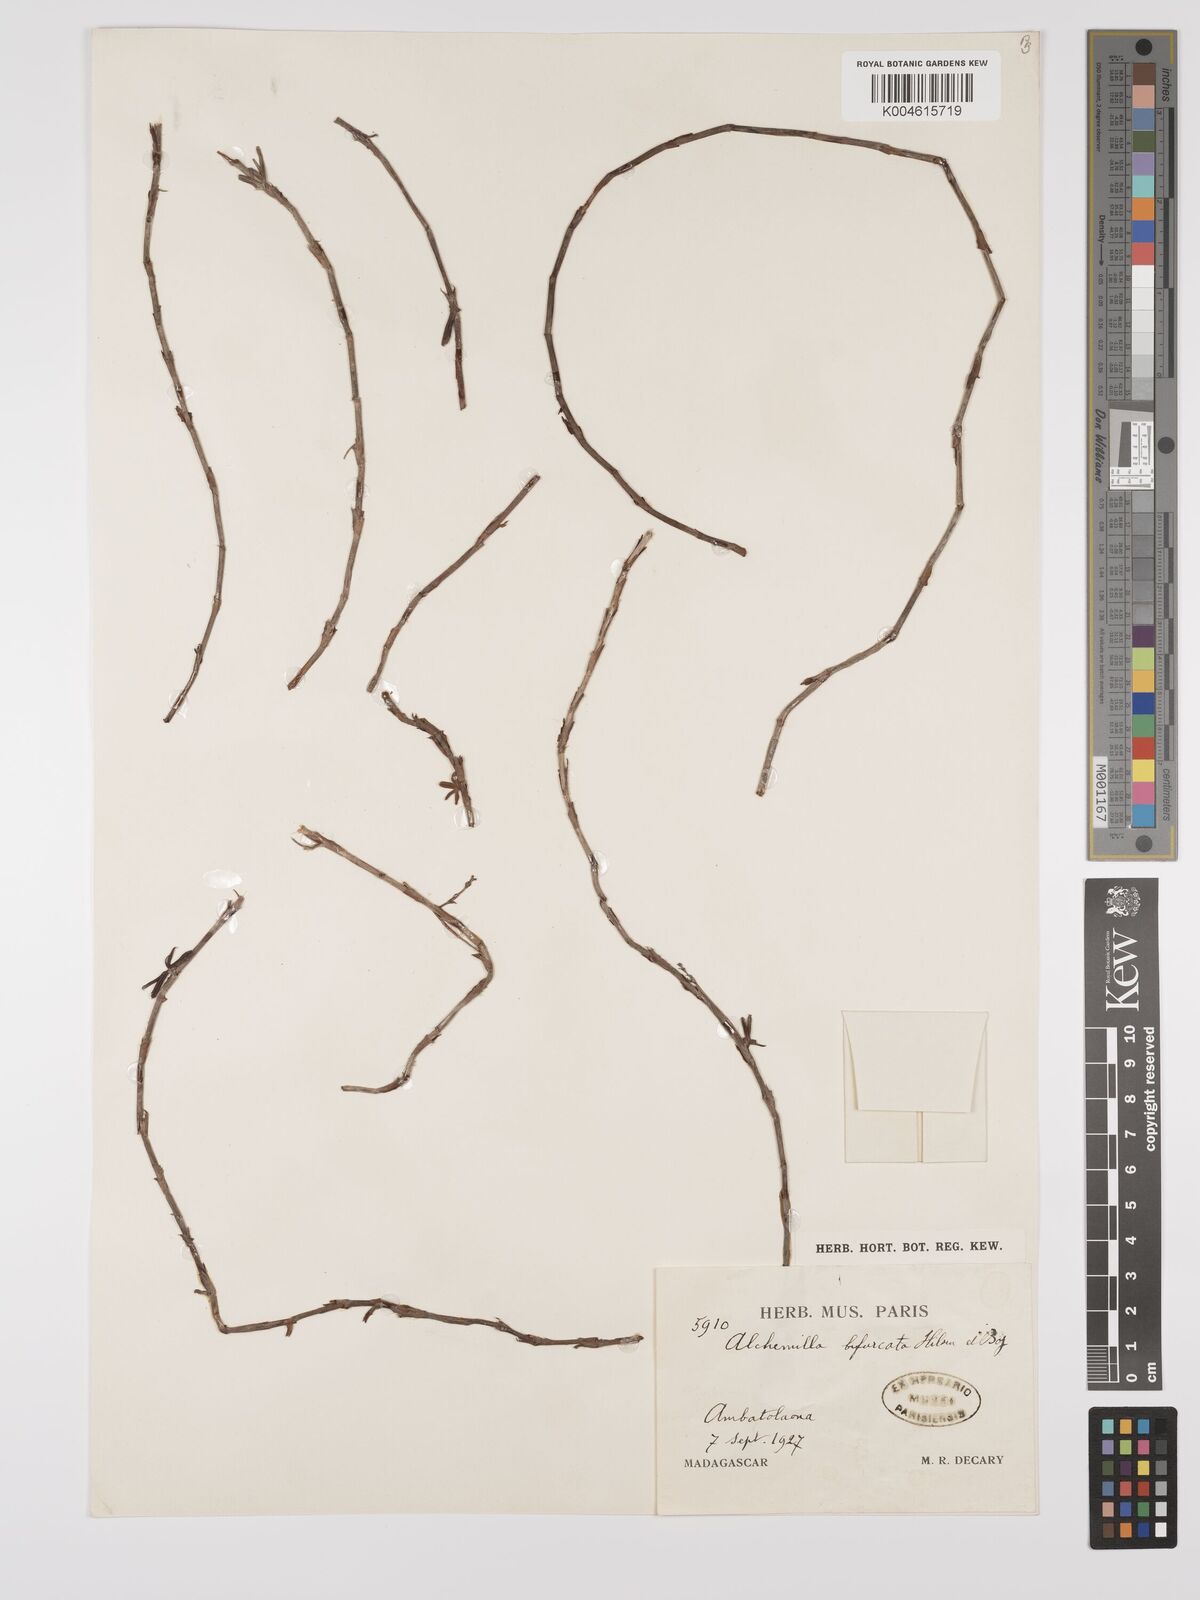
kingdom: Plantae
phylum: Tracheophyta
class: Magnoliopsida
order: Rosales
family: Rosaceae
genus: Alchemilla
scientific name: Alchemilla bifurcata
